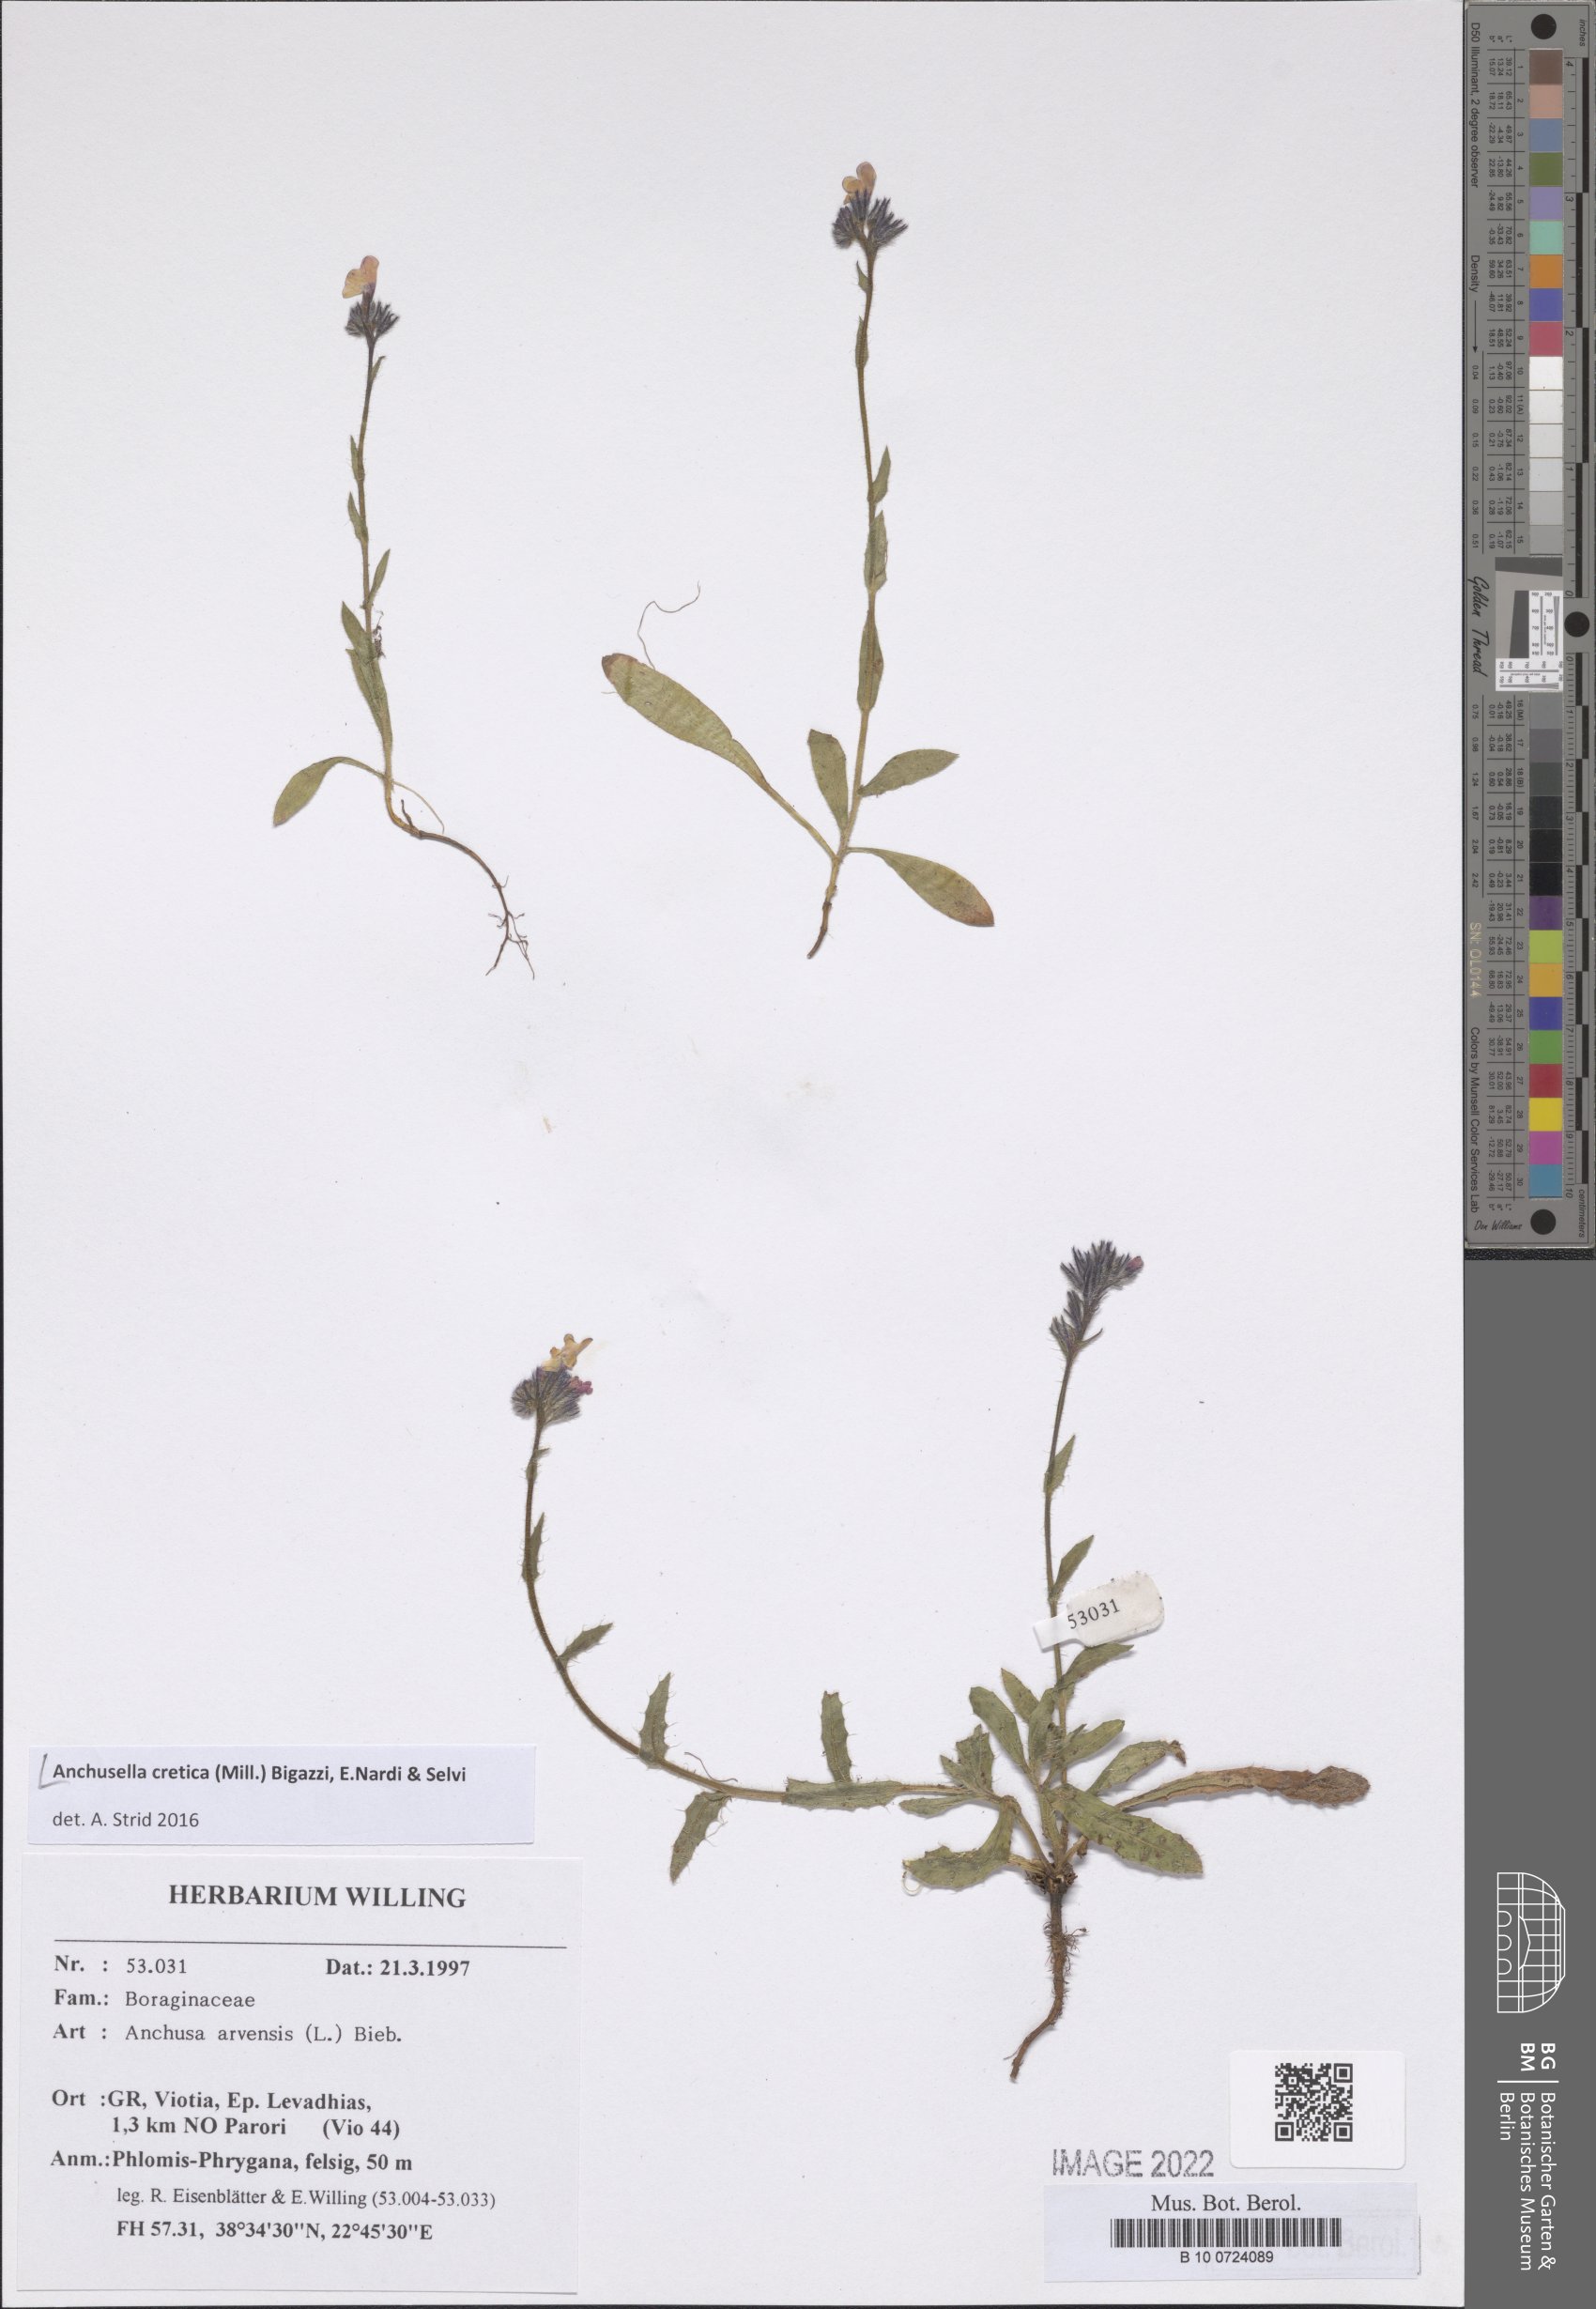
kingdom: Plantae
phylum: Tracheophyta
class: Magnoliopsida
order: Boraginales
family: Boraginaceae
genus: Anchusella
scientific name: Anchusella cretica
